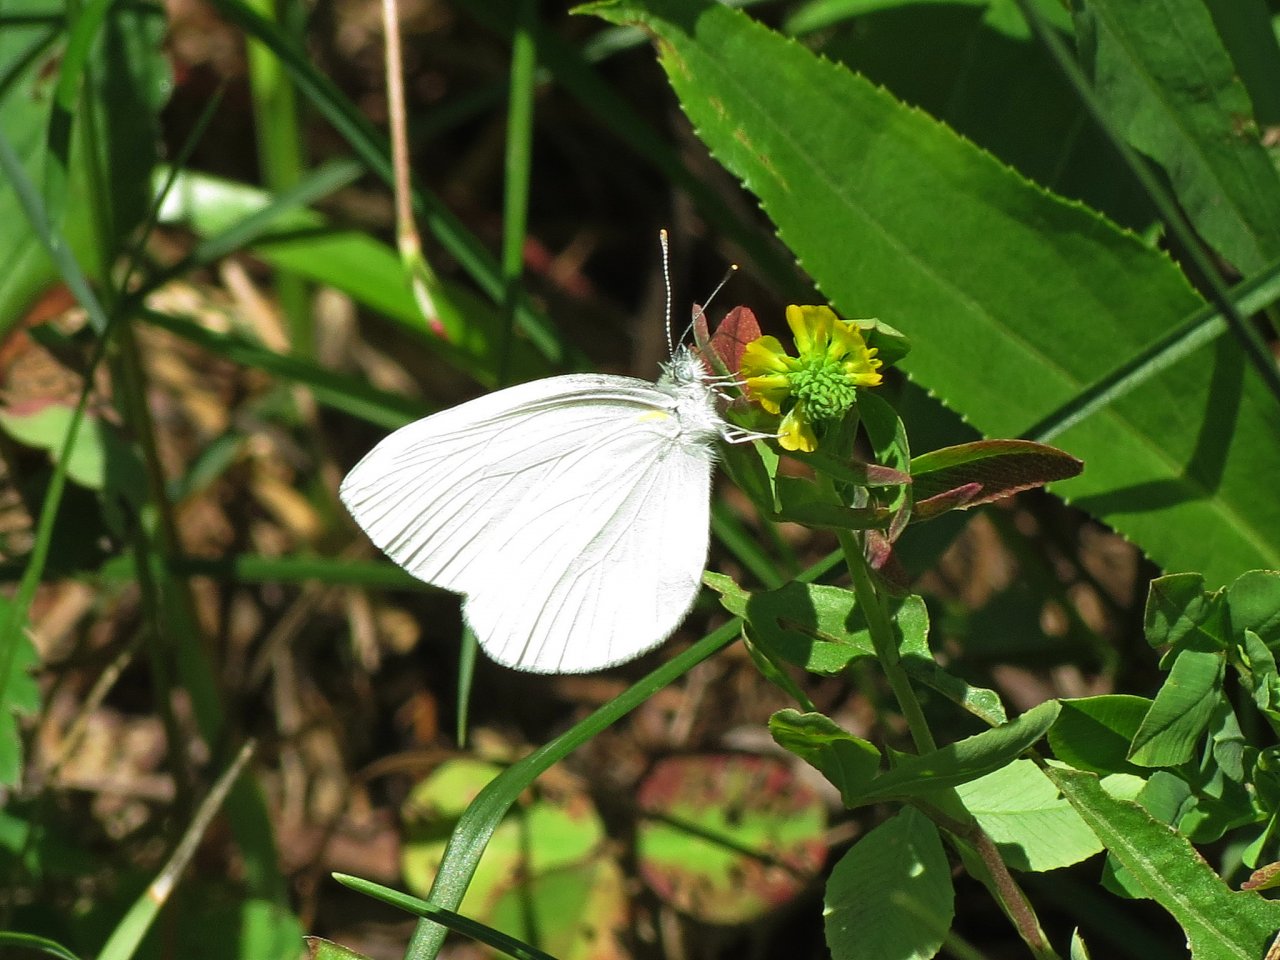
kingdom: Animalia
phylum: Arthropoda
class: Insecta
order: Lepidoptera
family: Pieridae
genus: Pieris
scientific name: Pieris oleracea
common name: Mustard White
